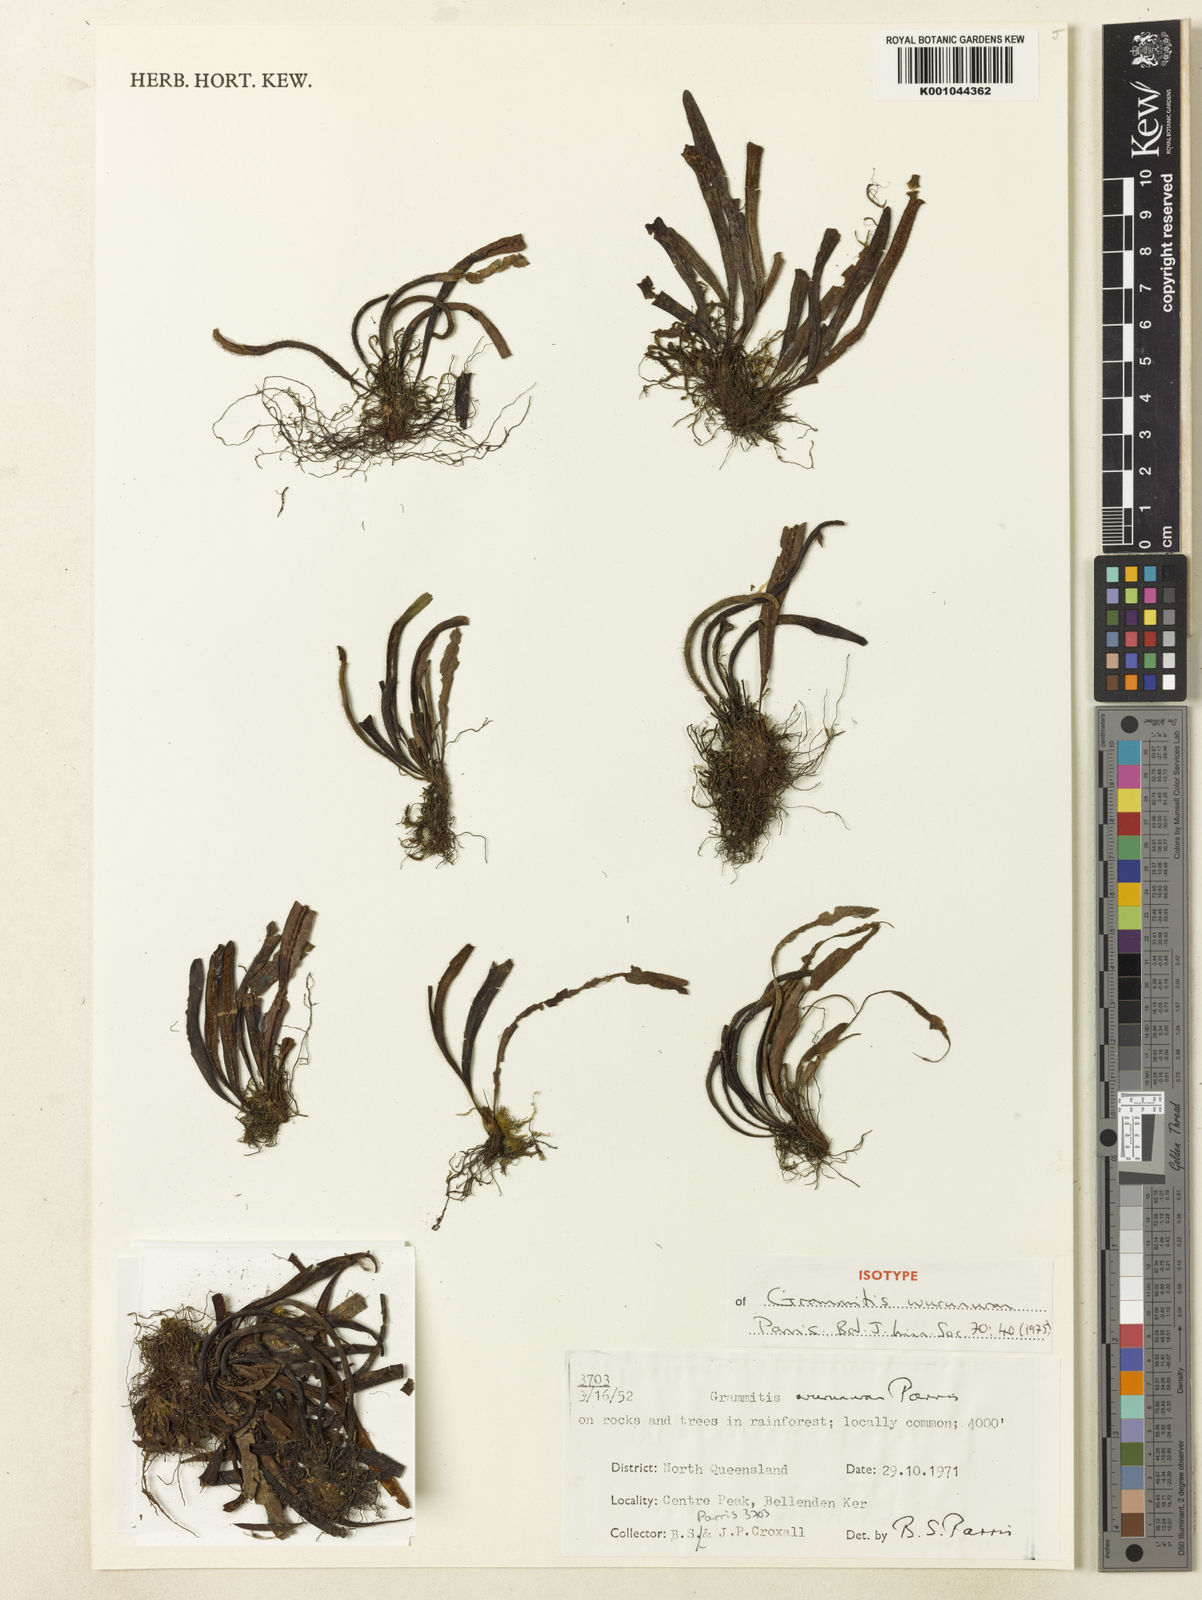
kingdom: Plantae
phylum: Tracheophyta
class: Polypodiopsida
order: Polypodiales
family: Polypodiaceae
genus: Oreogrammitis
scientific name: Oreogrammitis wurunuran
